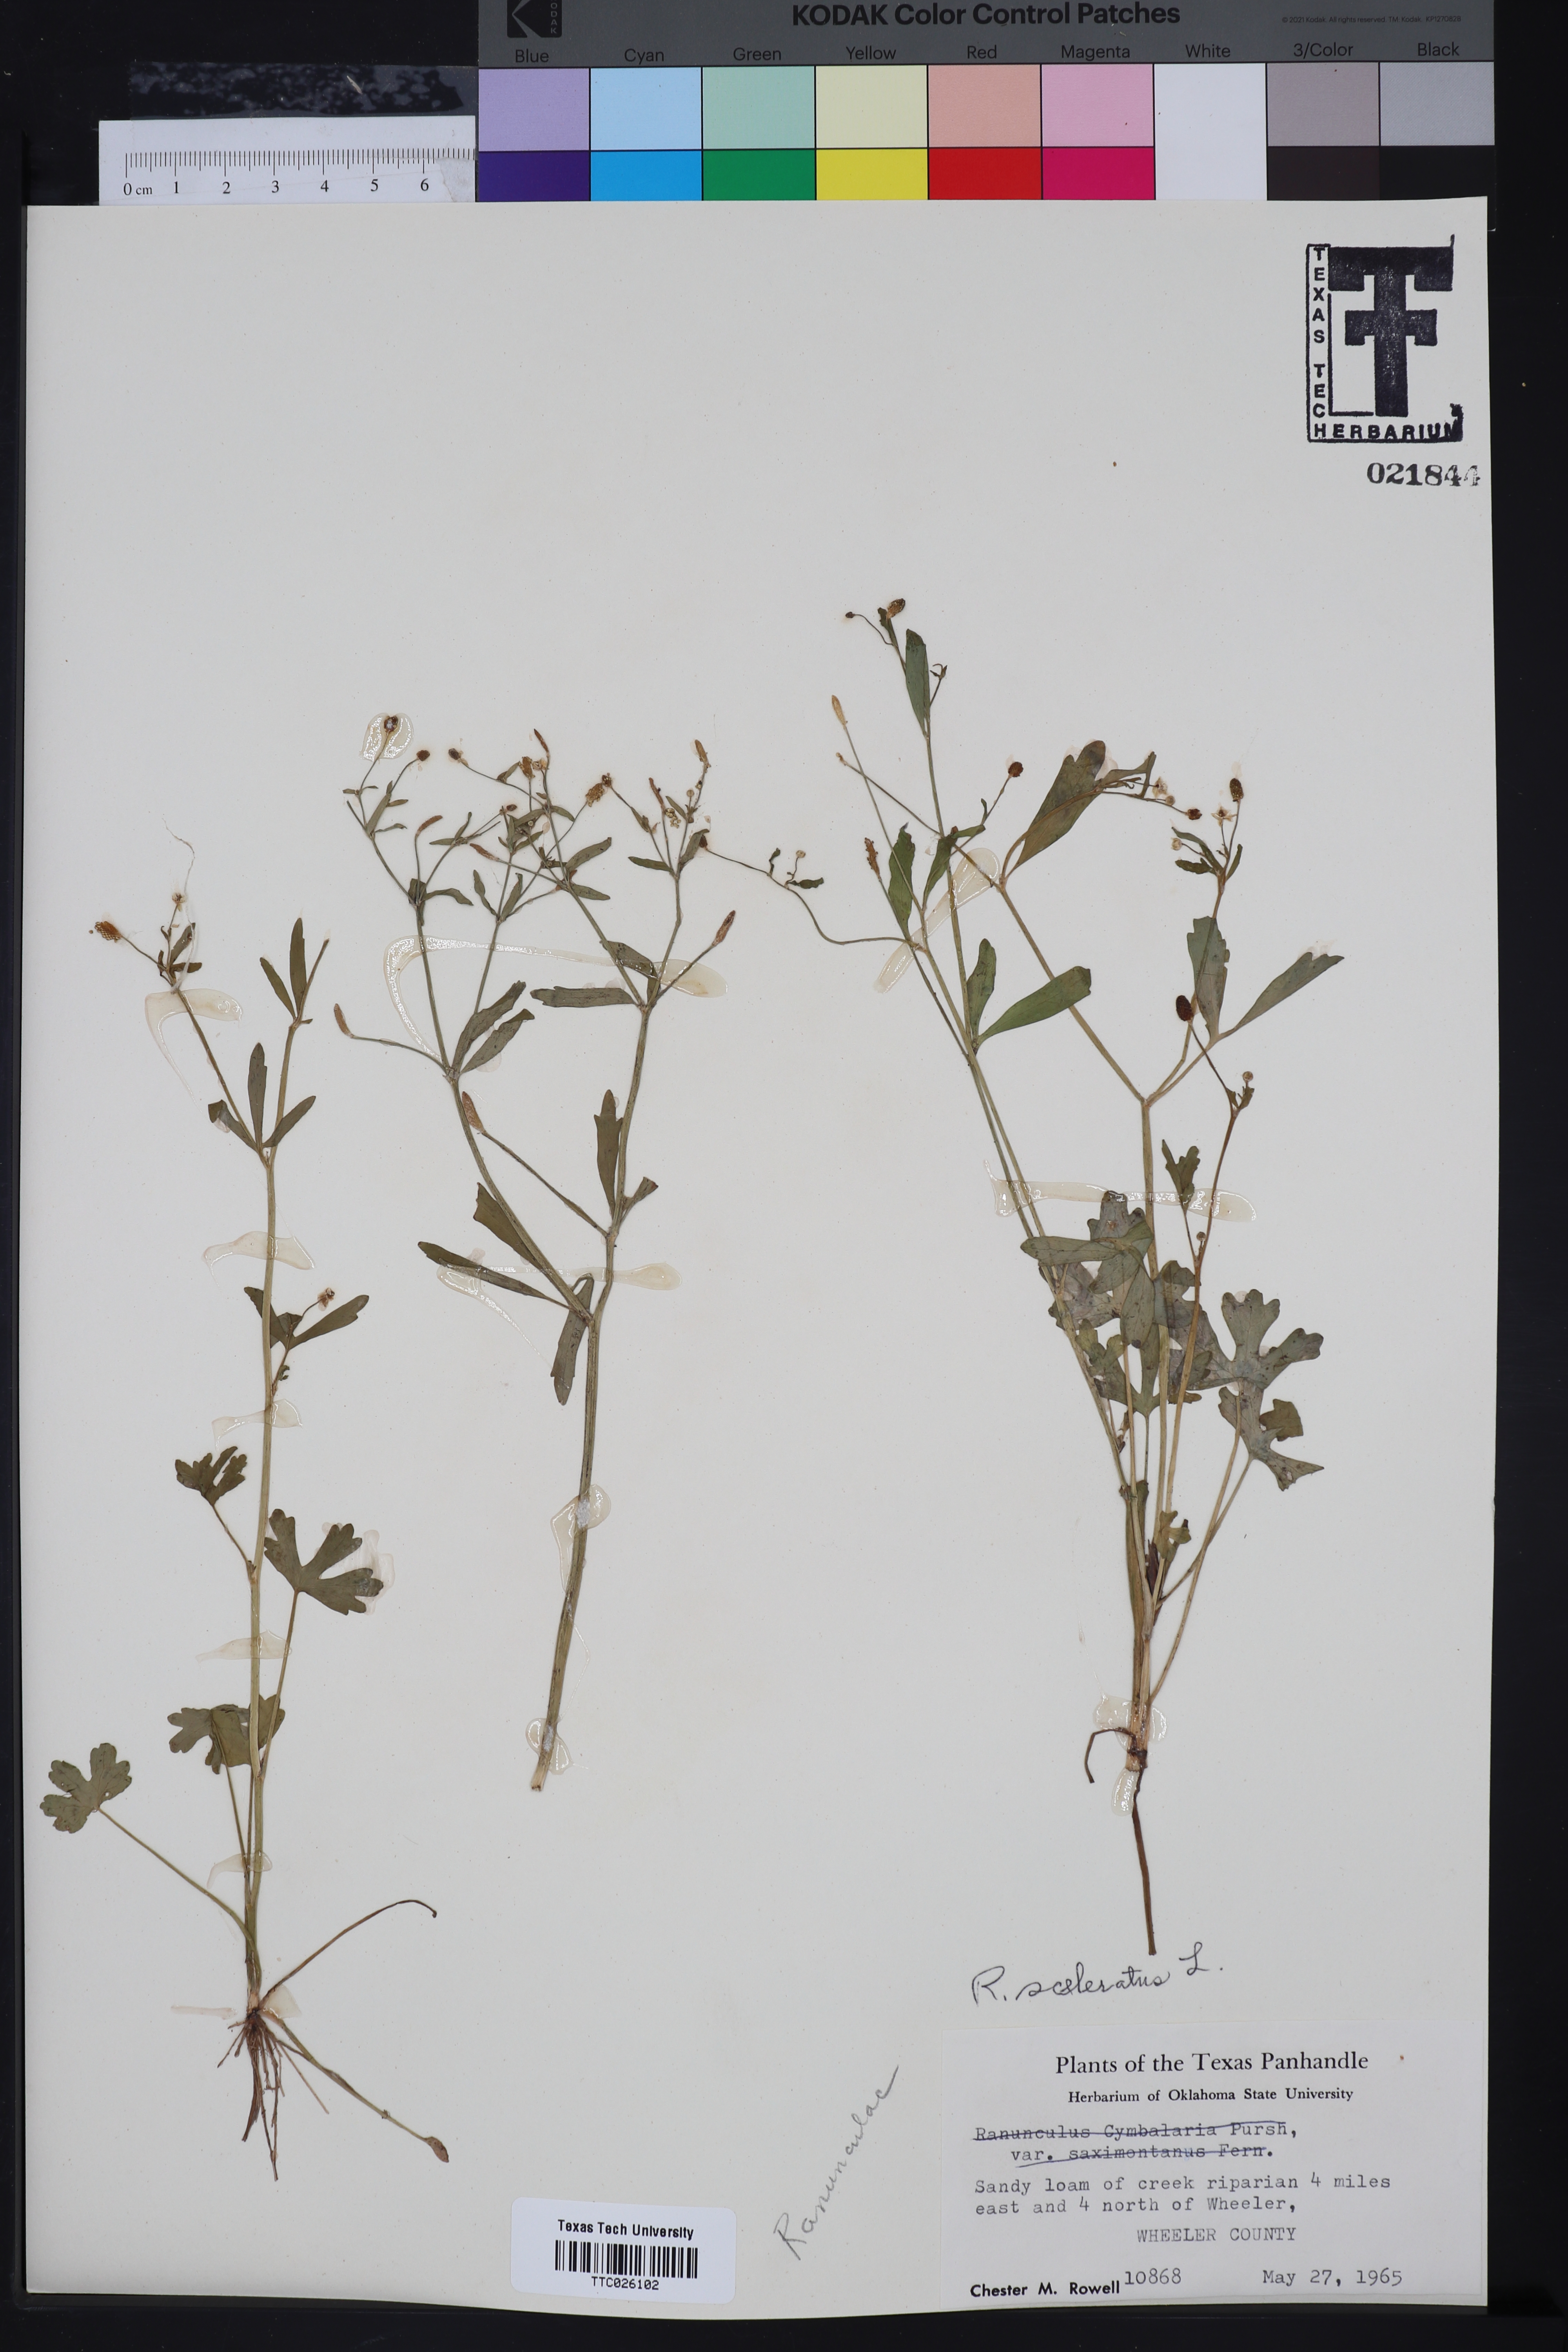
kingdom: Plantae
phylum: Tracheophyta
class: Magnoliopsida
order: Ranunculales
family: Ranunculaceae
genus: Ranunculus
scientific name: Ranunculus sceleratus
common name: Celery-leaved buttercup
